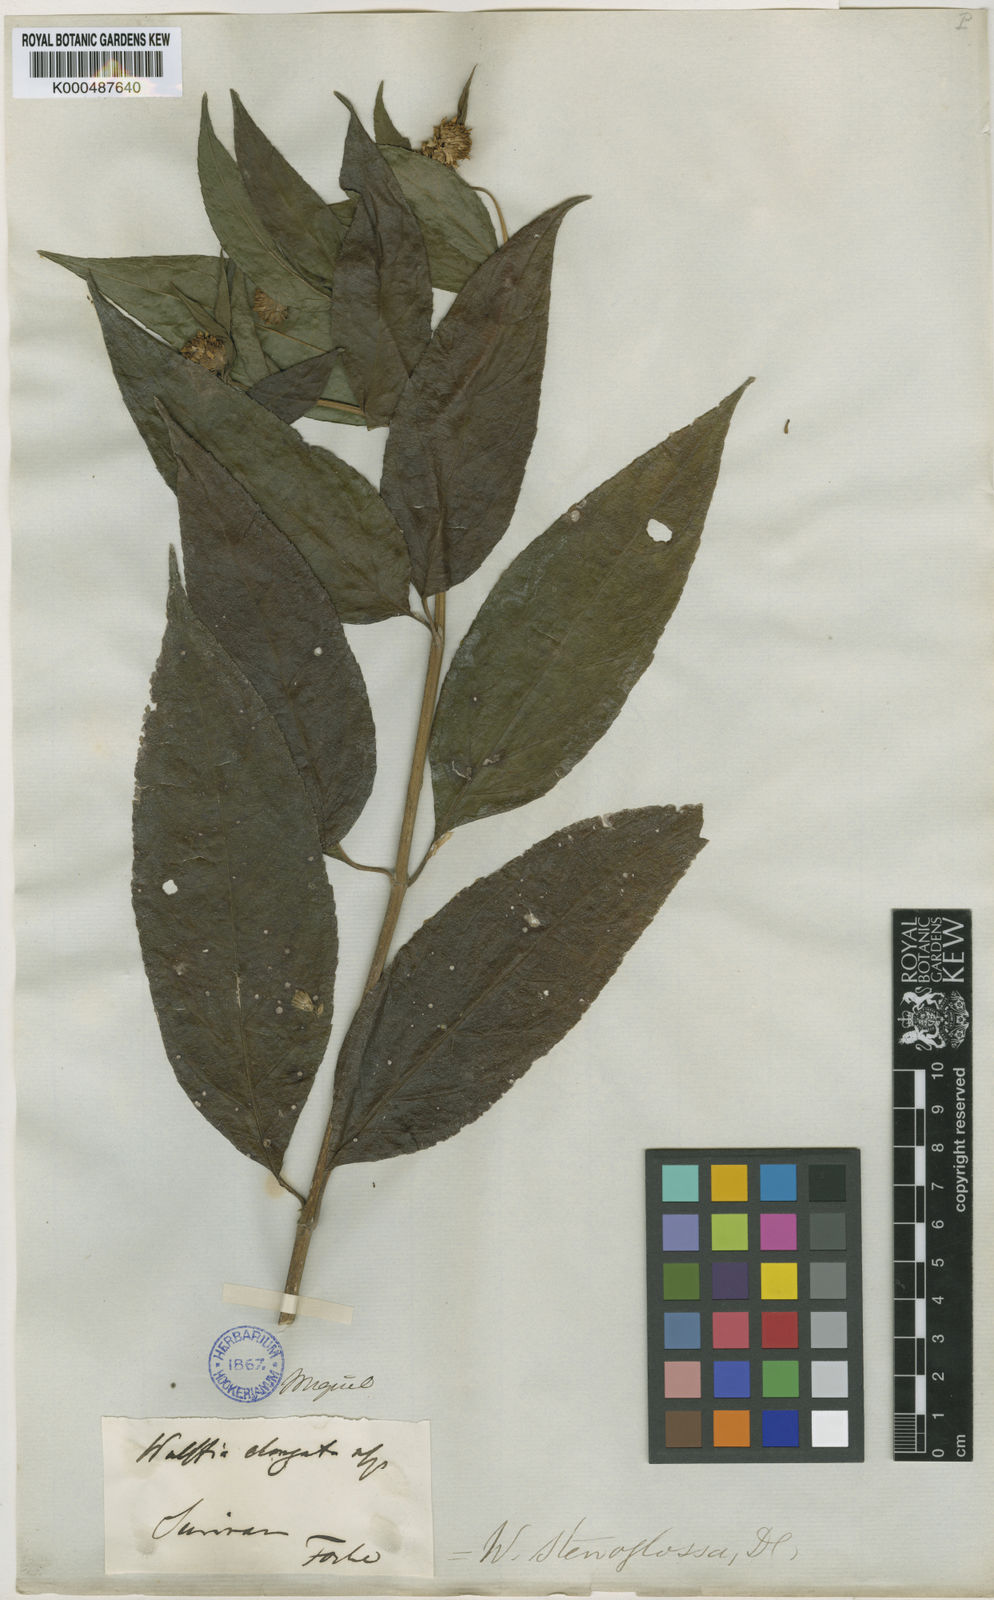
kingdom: Plantae
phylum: Tracheophyta
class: Magnoliopsida
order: Asterales
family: Asteraceae
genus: Tilesia
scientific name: Tilesia baccata
